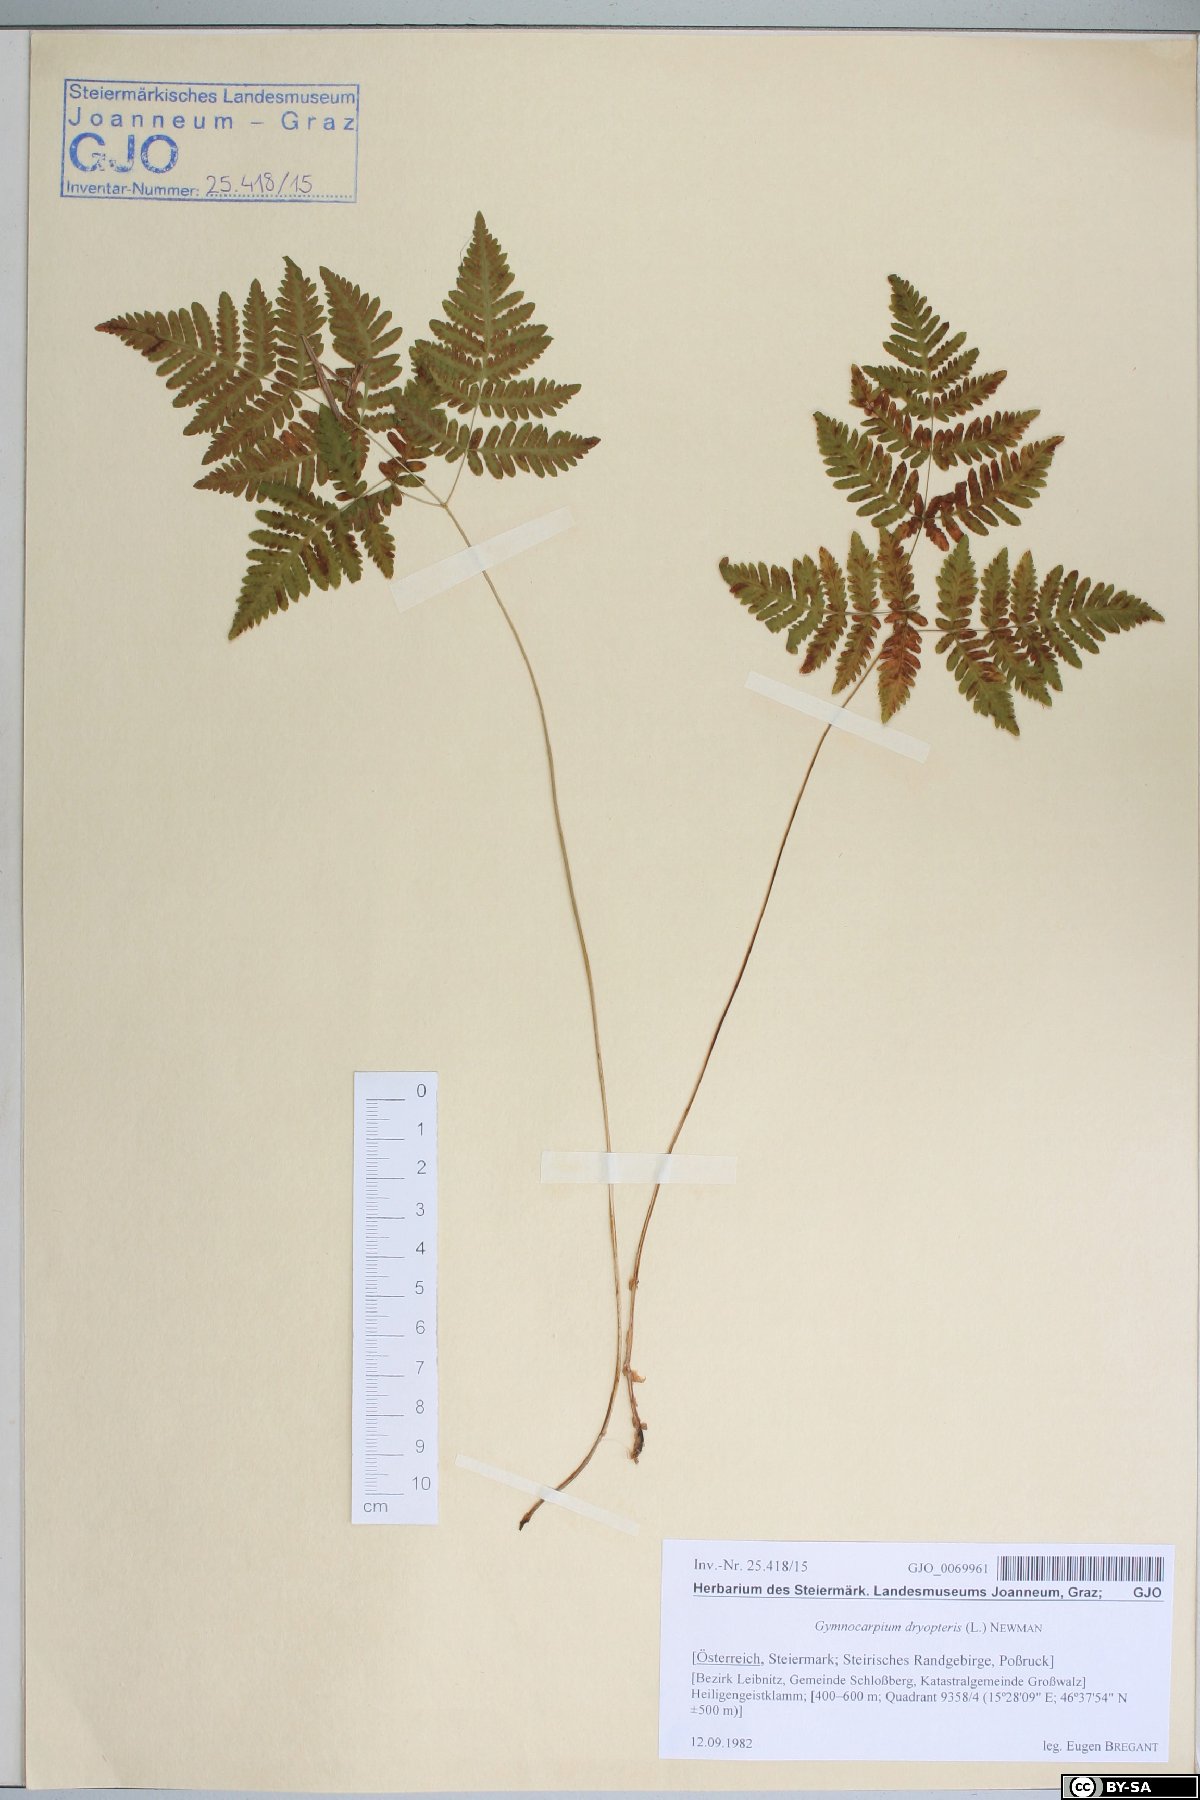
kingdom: Plantae
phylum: Tracheophyta
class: Polypodiopsida
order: Polypodiales
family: Cystopteridaceae
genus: Gymnocarpium
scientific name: Gymnocarpium dryopteris
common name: Oak fern
